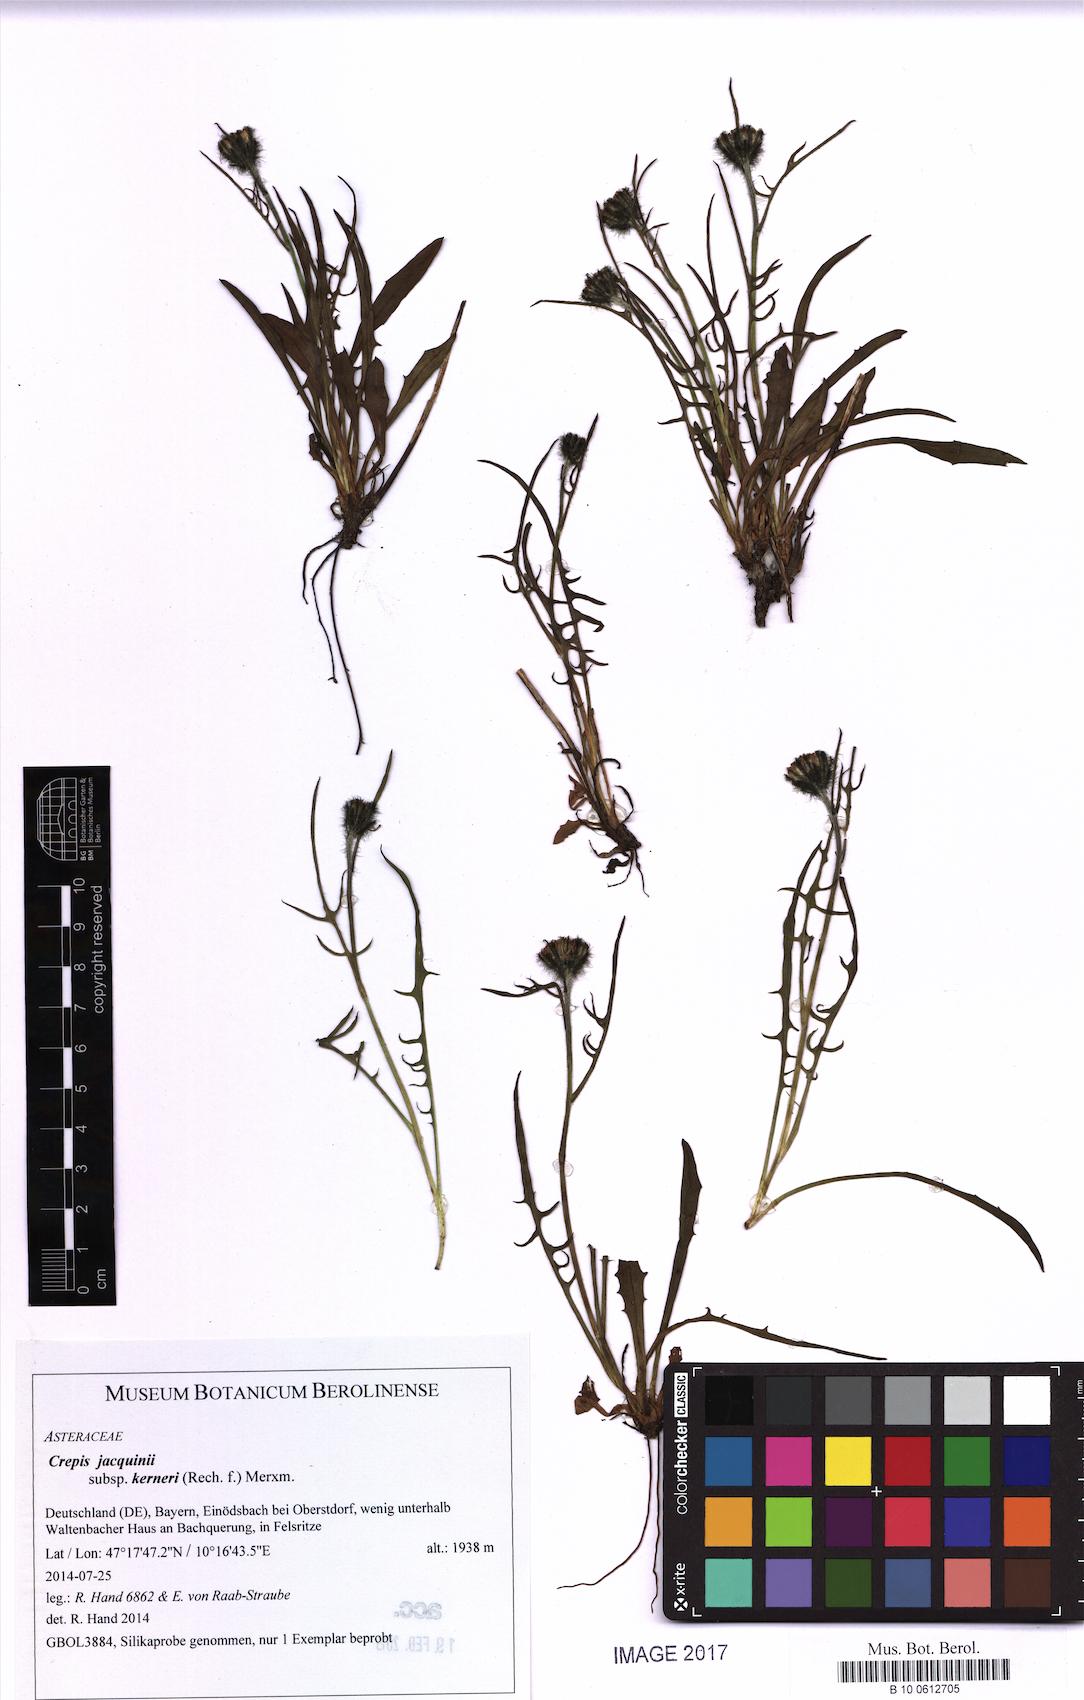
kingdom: Plantae
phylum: Tracheophyta
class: Magnoliopsida
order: Asterales
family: Asteraceae
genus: Crepis
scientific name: Crepis jacquinii
